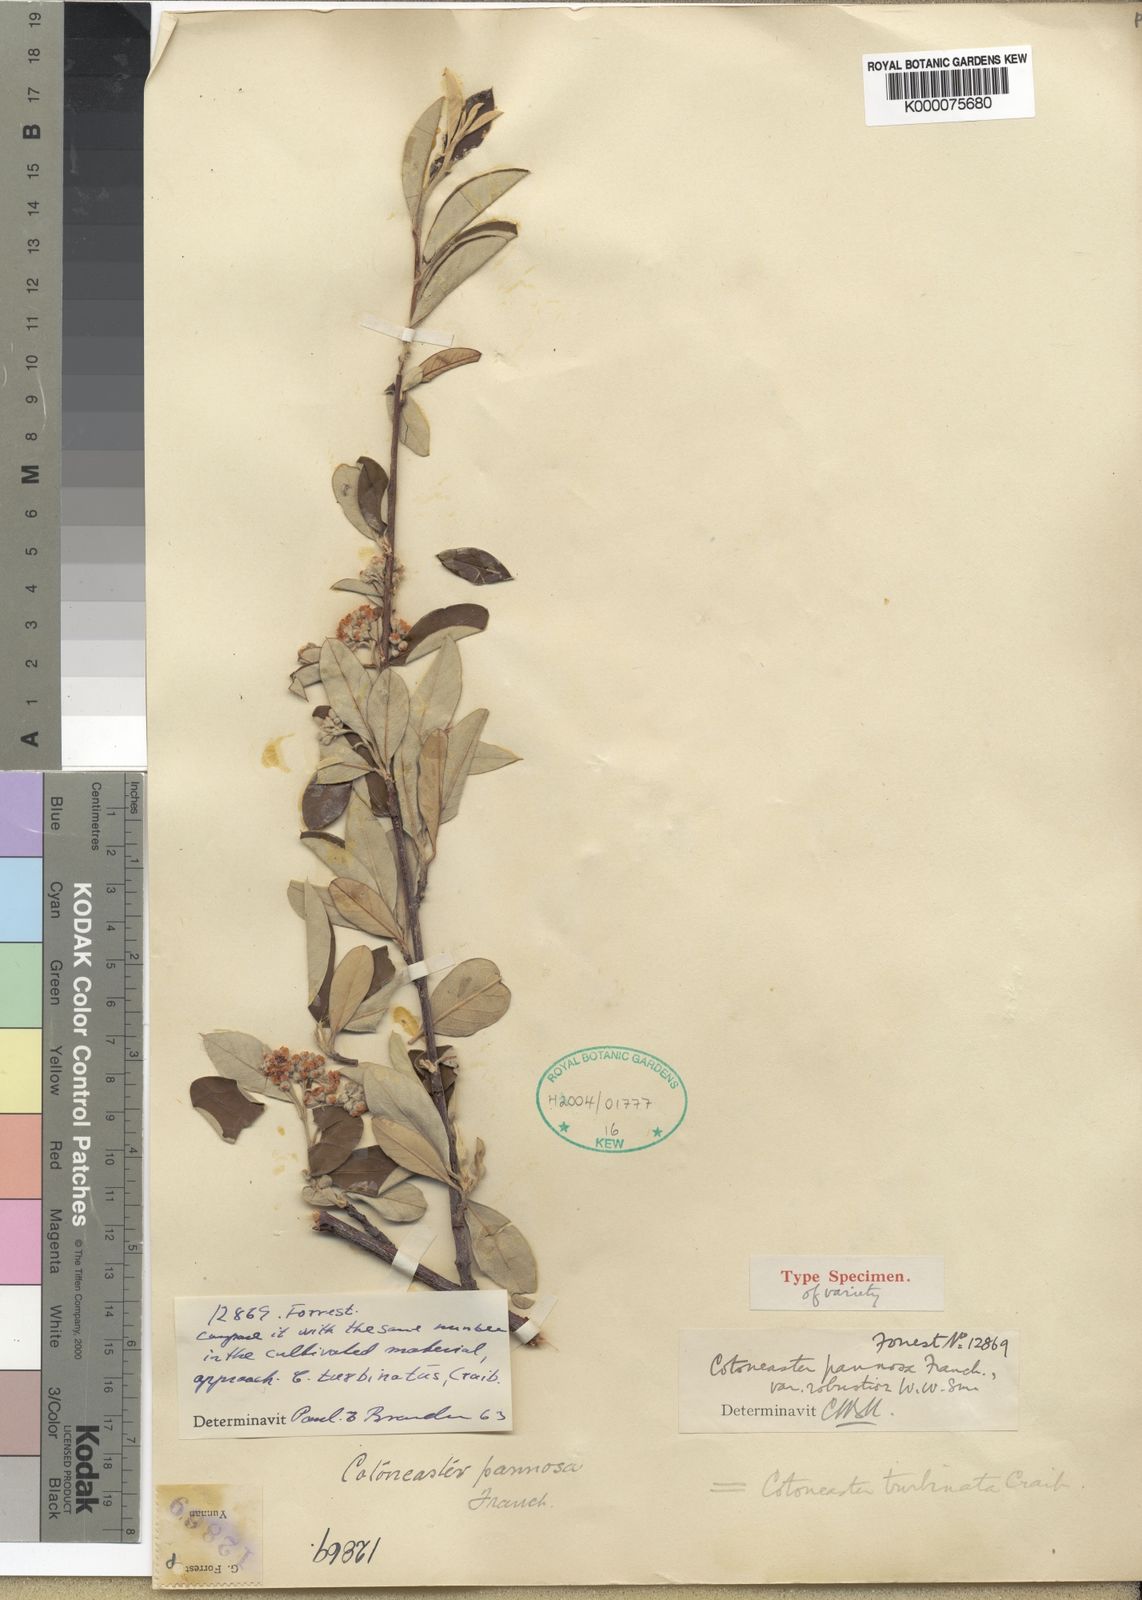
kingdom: Plantae
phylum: Tracheophyta
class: Magnoliopsida
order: Rosales
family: Rosaceae
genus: Cotoneaster
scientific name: Cotoneaster turbinatus
